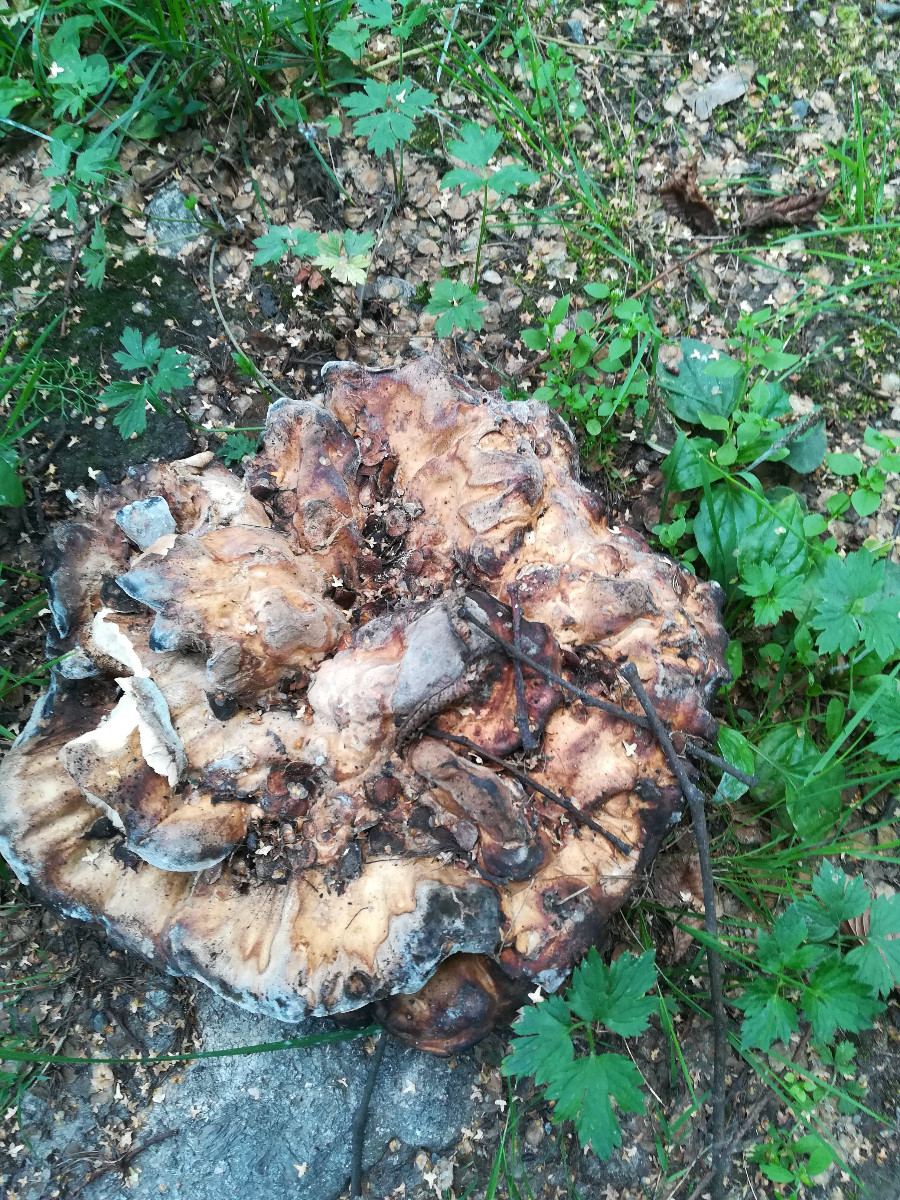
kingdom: Fungi
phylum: Basidiomycota
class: Agaricomycetes
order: Polyporales
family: Meripilaceae
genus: Meripilus
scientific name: Meripilus giganteus
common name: kæmpeporesvamp
